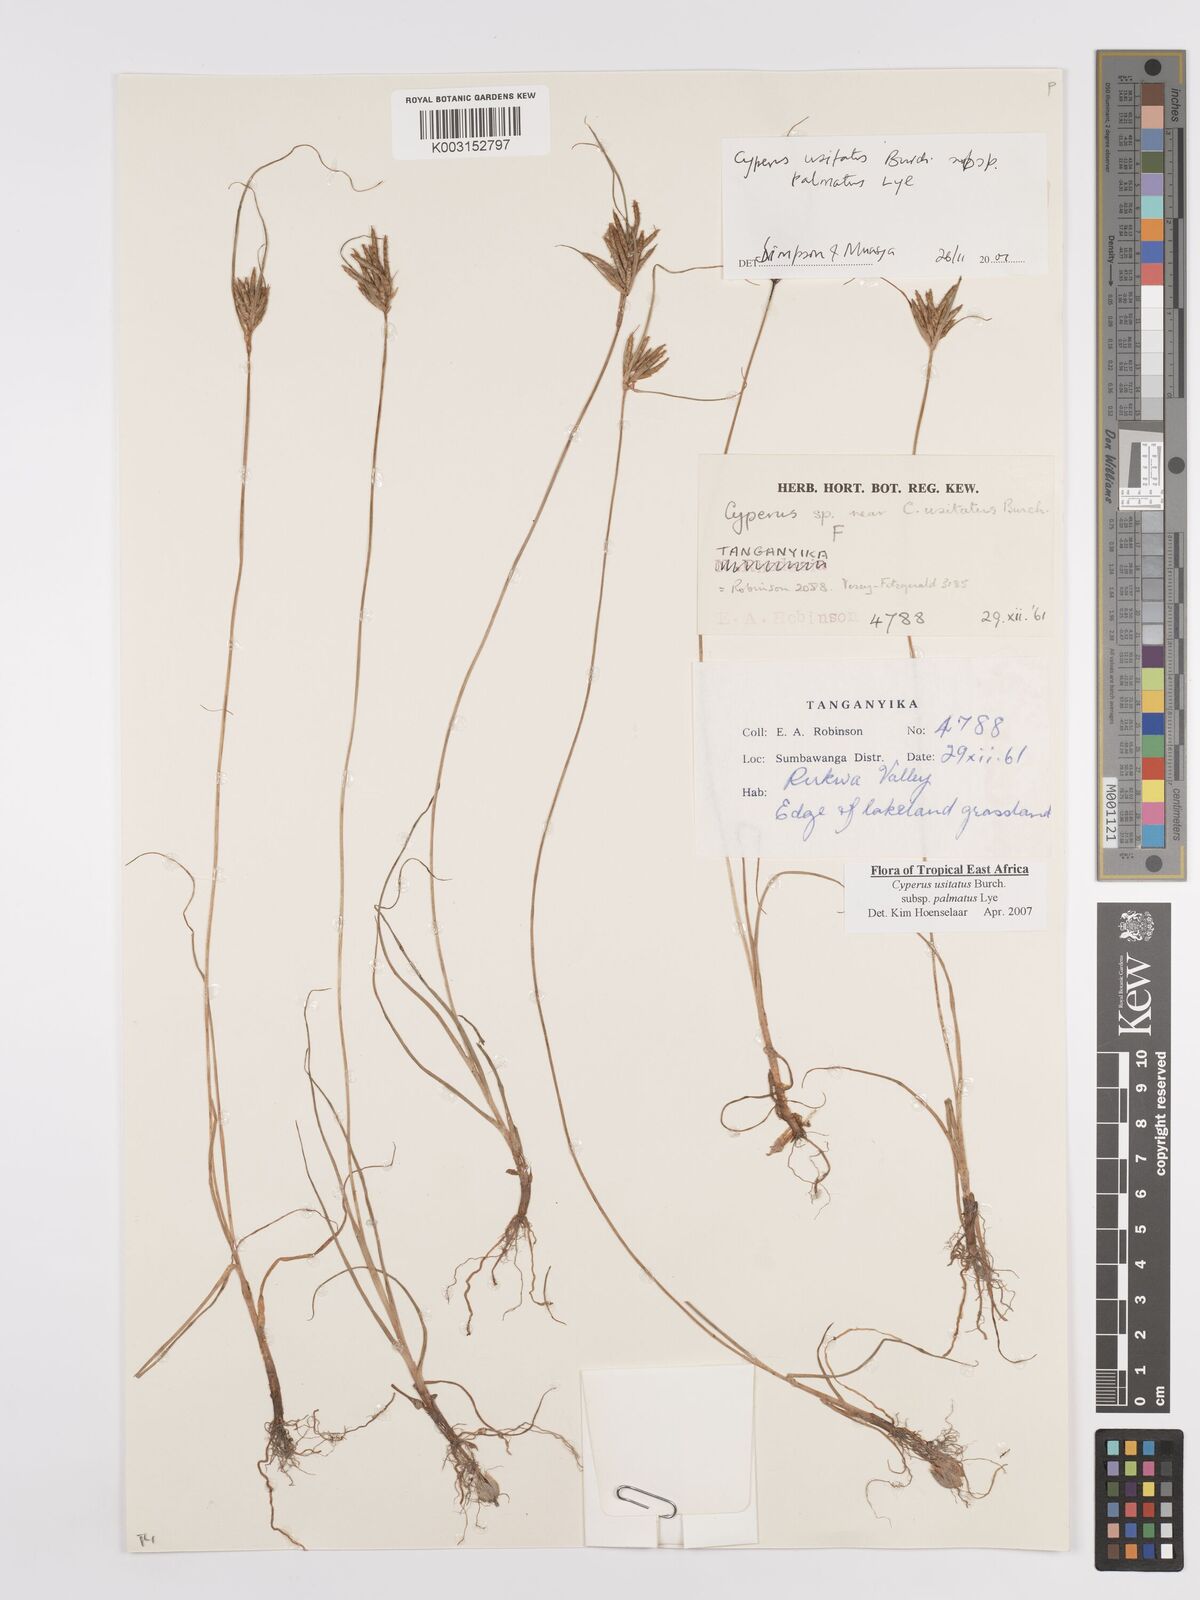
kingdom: Plantae
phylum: Tracheophyta
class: Liliopsida
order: Poales
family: Cyperaceae
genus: Cyperus
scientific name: Cyperus palmatus
